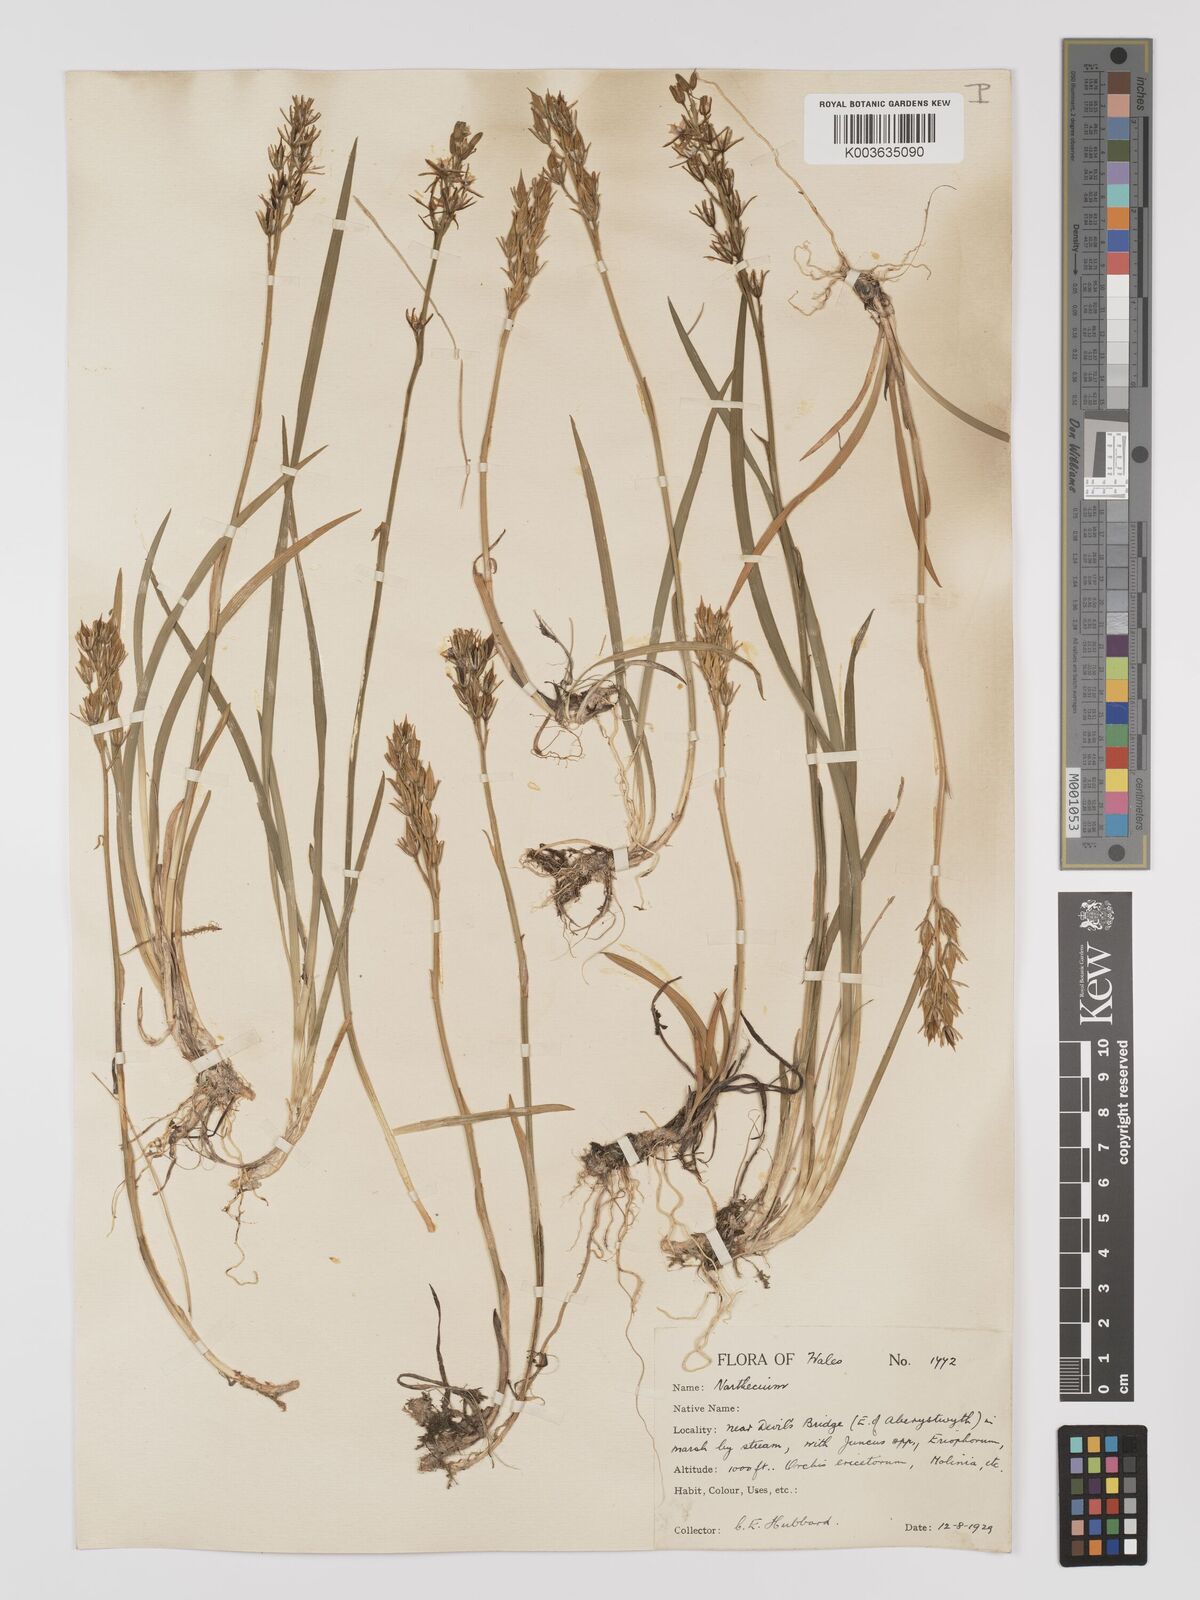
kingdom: Plantae
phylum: Tracheophyta
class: Liliopsida
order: Dioscoreales
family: Nartheciaceae
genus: Narthecium
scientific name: Narthecium
